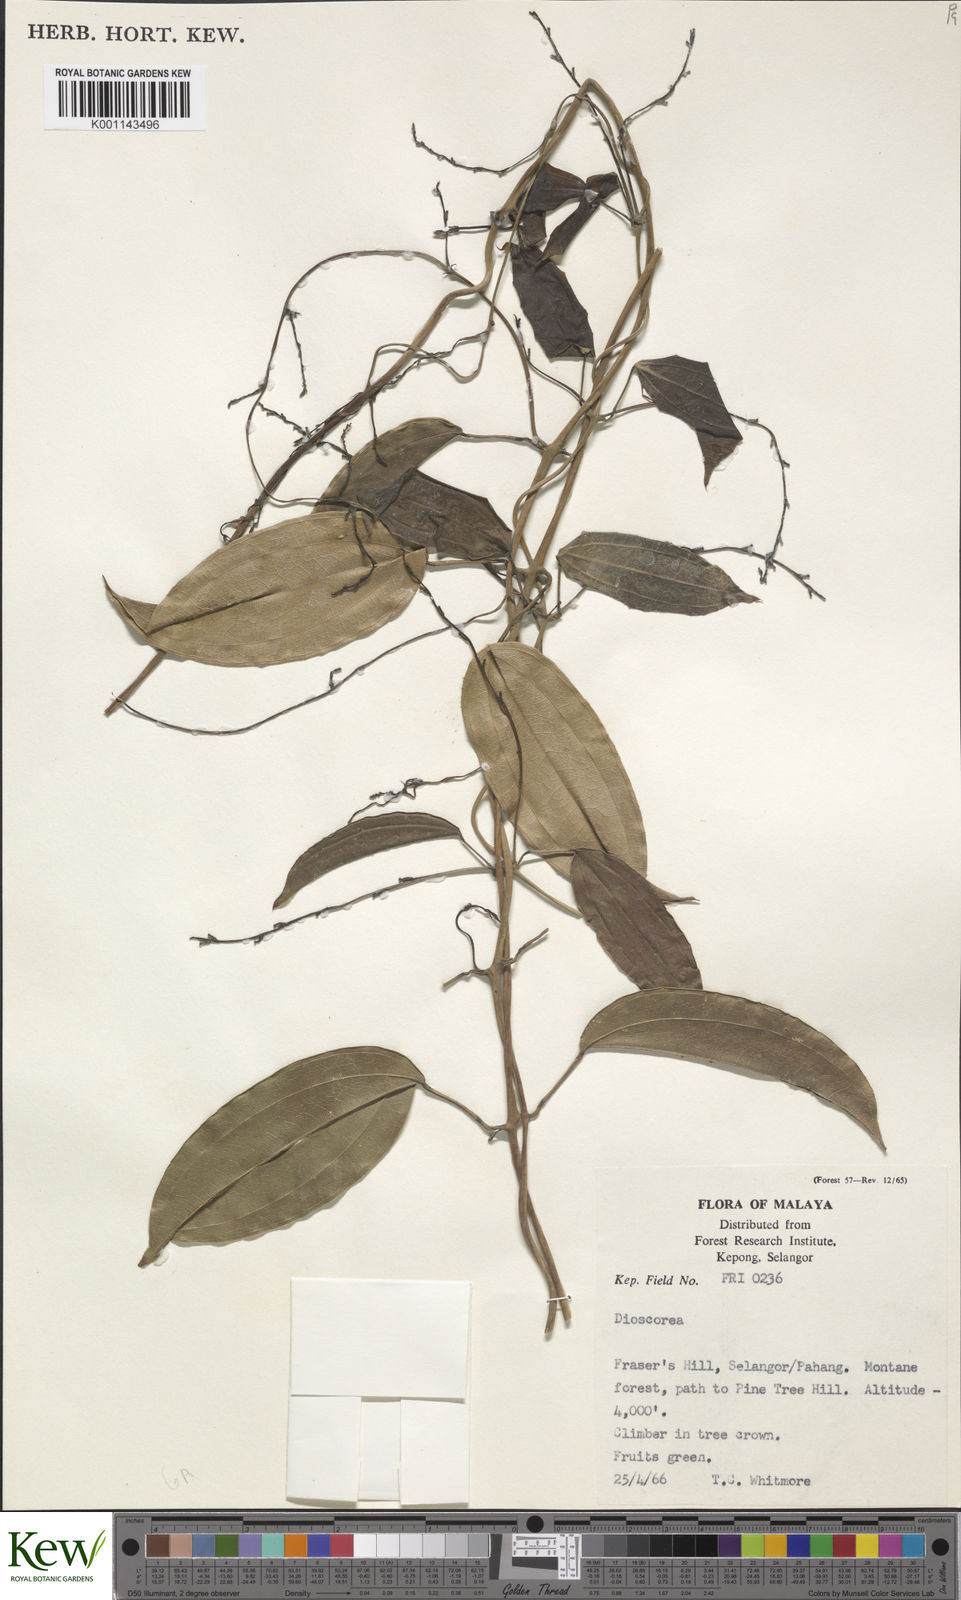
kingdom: Plantae
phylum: Tracheophyta
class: Liliopsida
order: Dioscoreales
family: Dioscoreaceae
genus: Dioscorea
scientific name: Dioscorea
